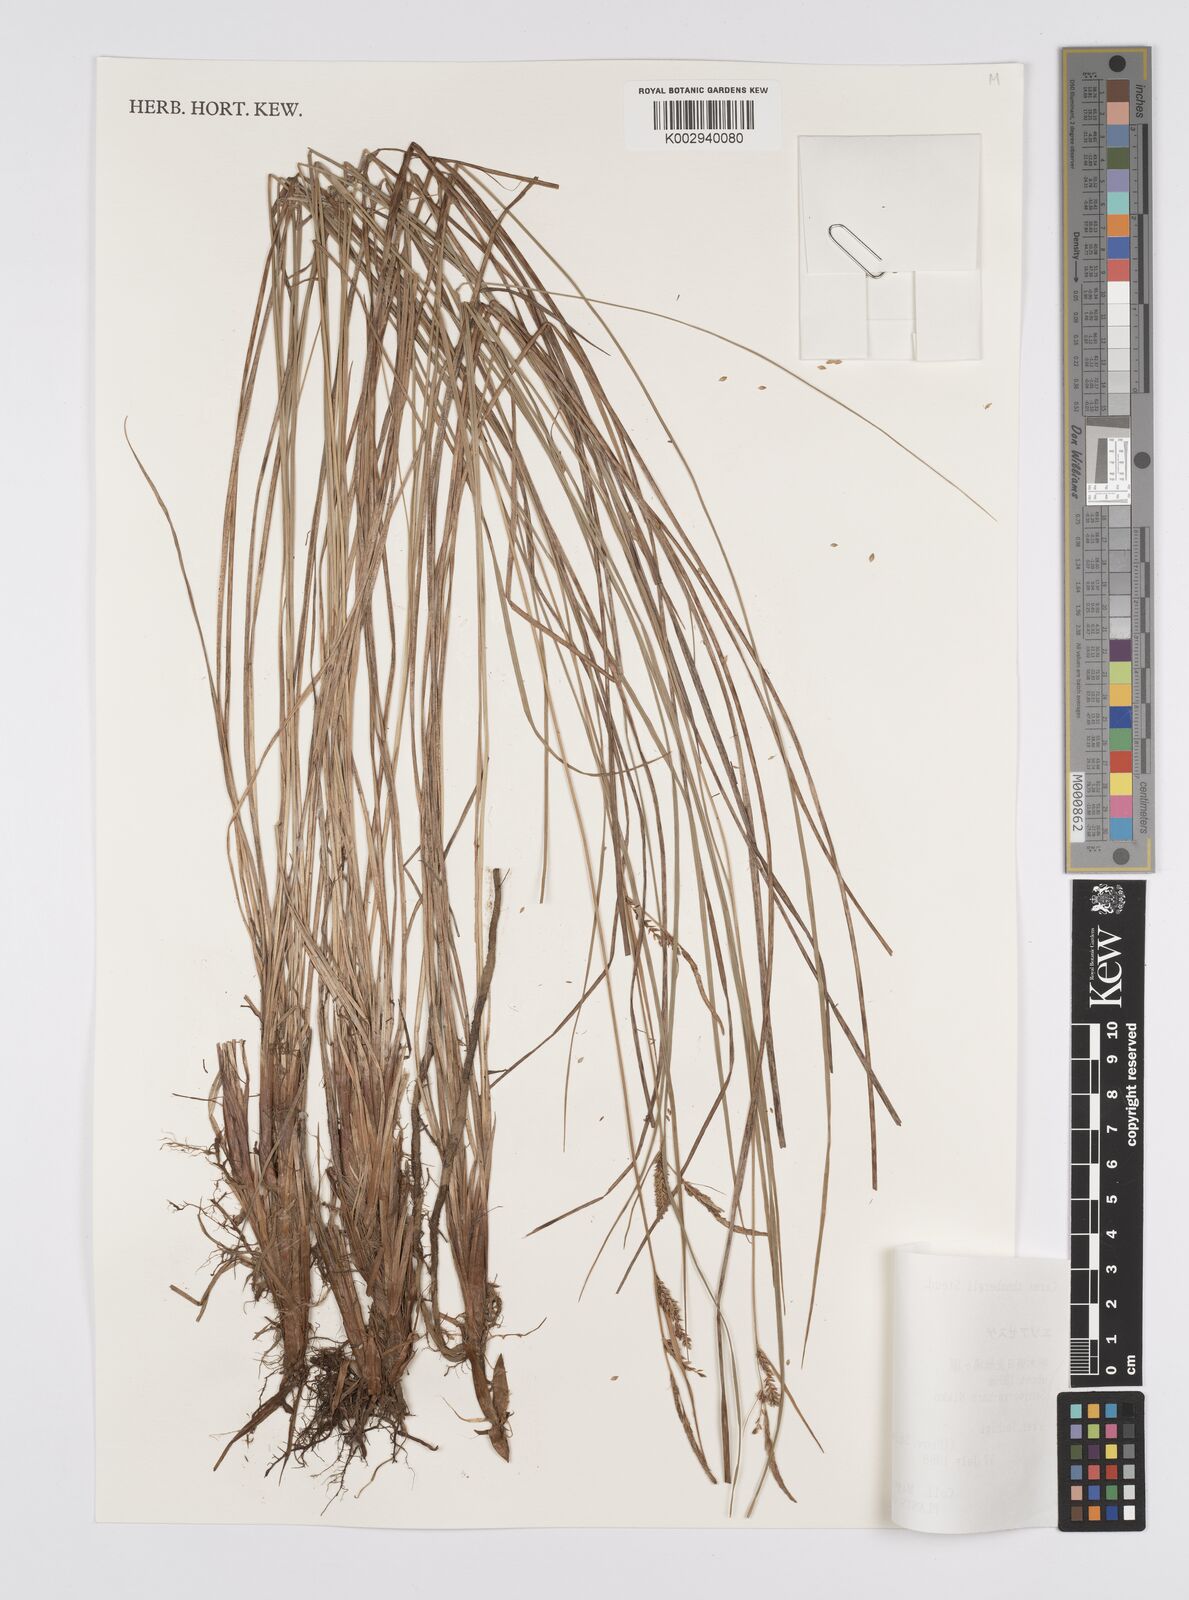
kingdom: Plantae
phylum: Tracheophyta
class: Liliopsida
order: Poales
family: Cyperaceae
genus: Carex
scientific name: Carex thunbergii
